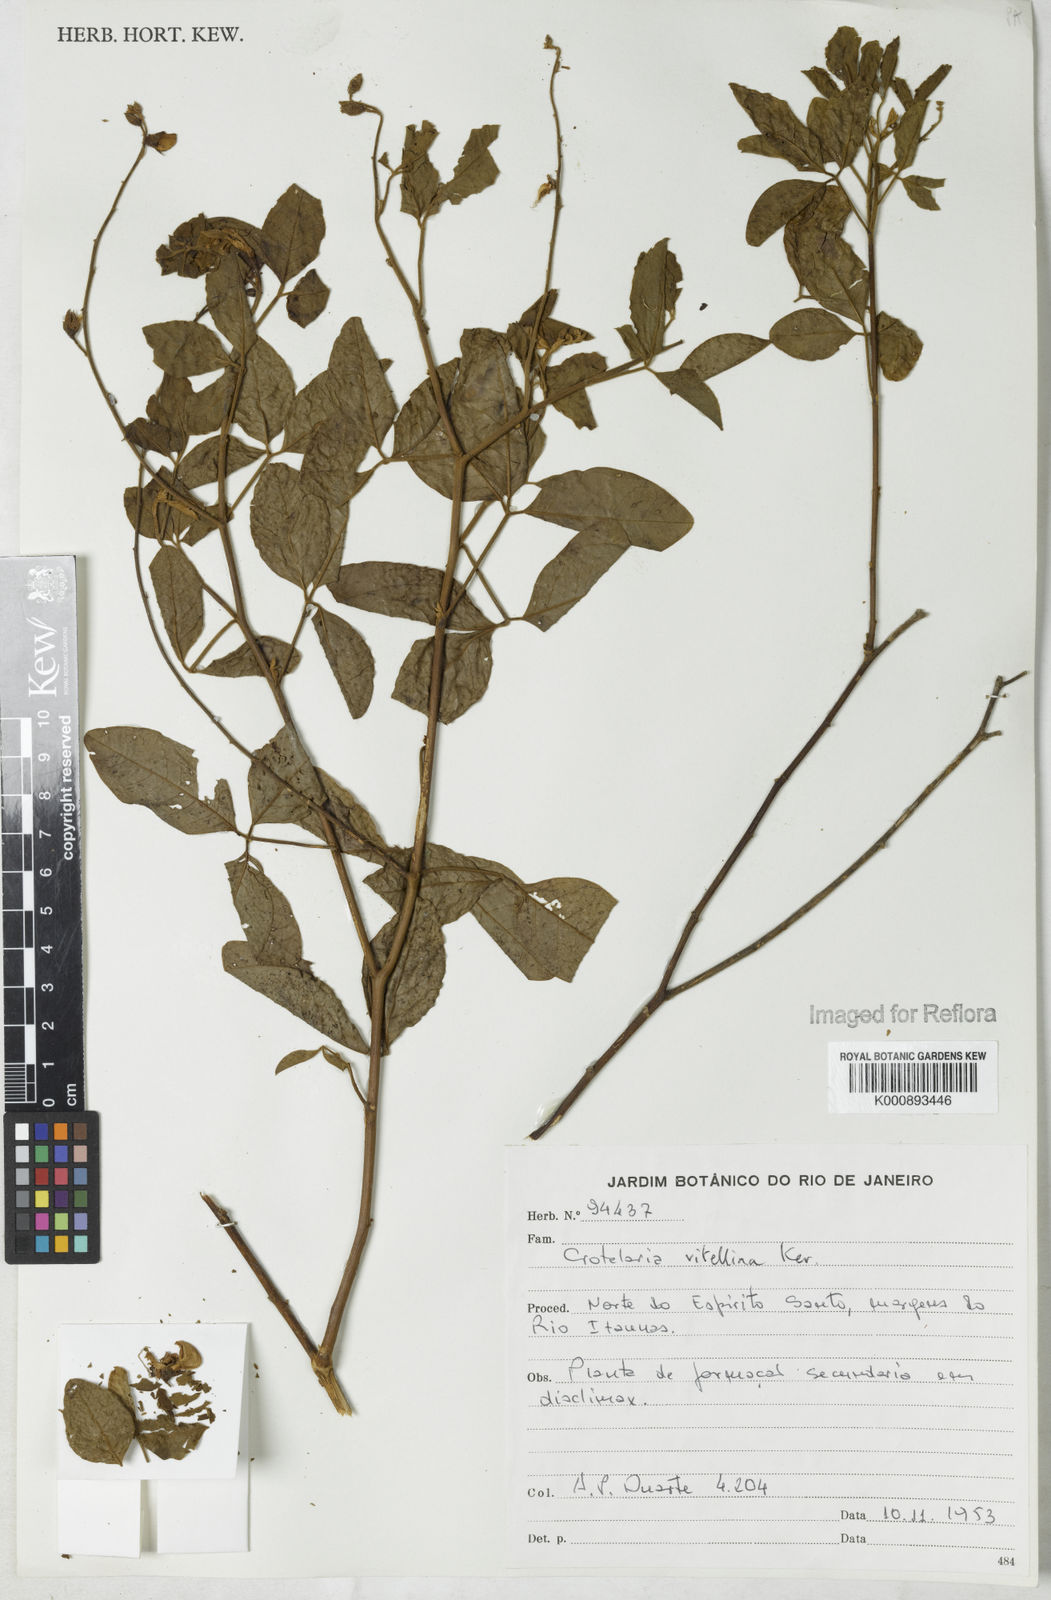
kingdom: Plantae
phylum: Tracheophyta
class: Magnoliopsida
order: Fabales
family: Fabaceae
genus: Crotalaria
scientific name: Crotalaria vitellina
